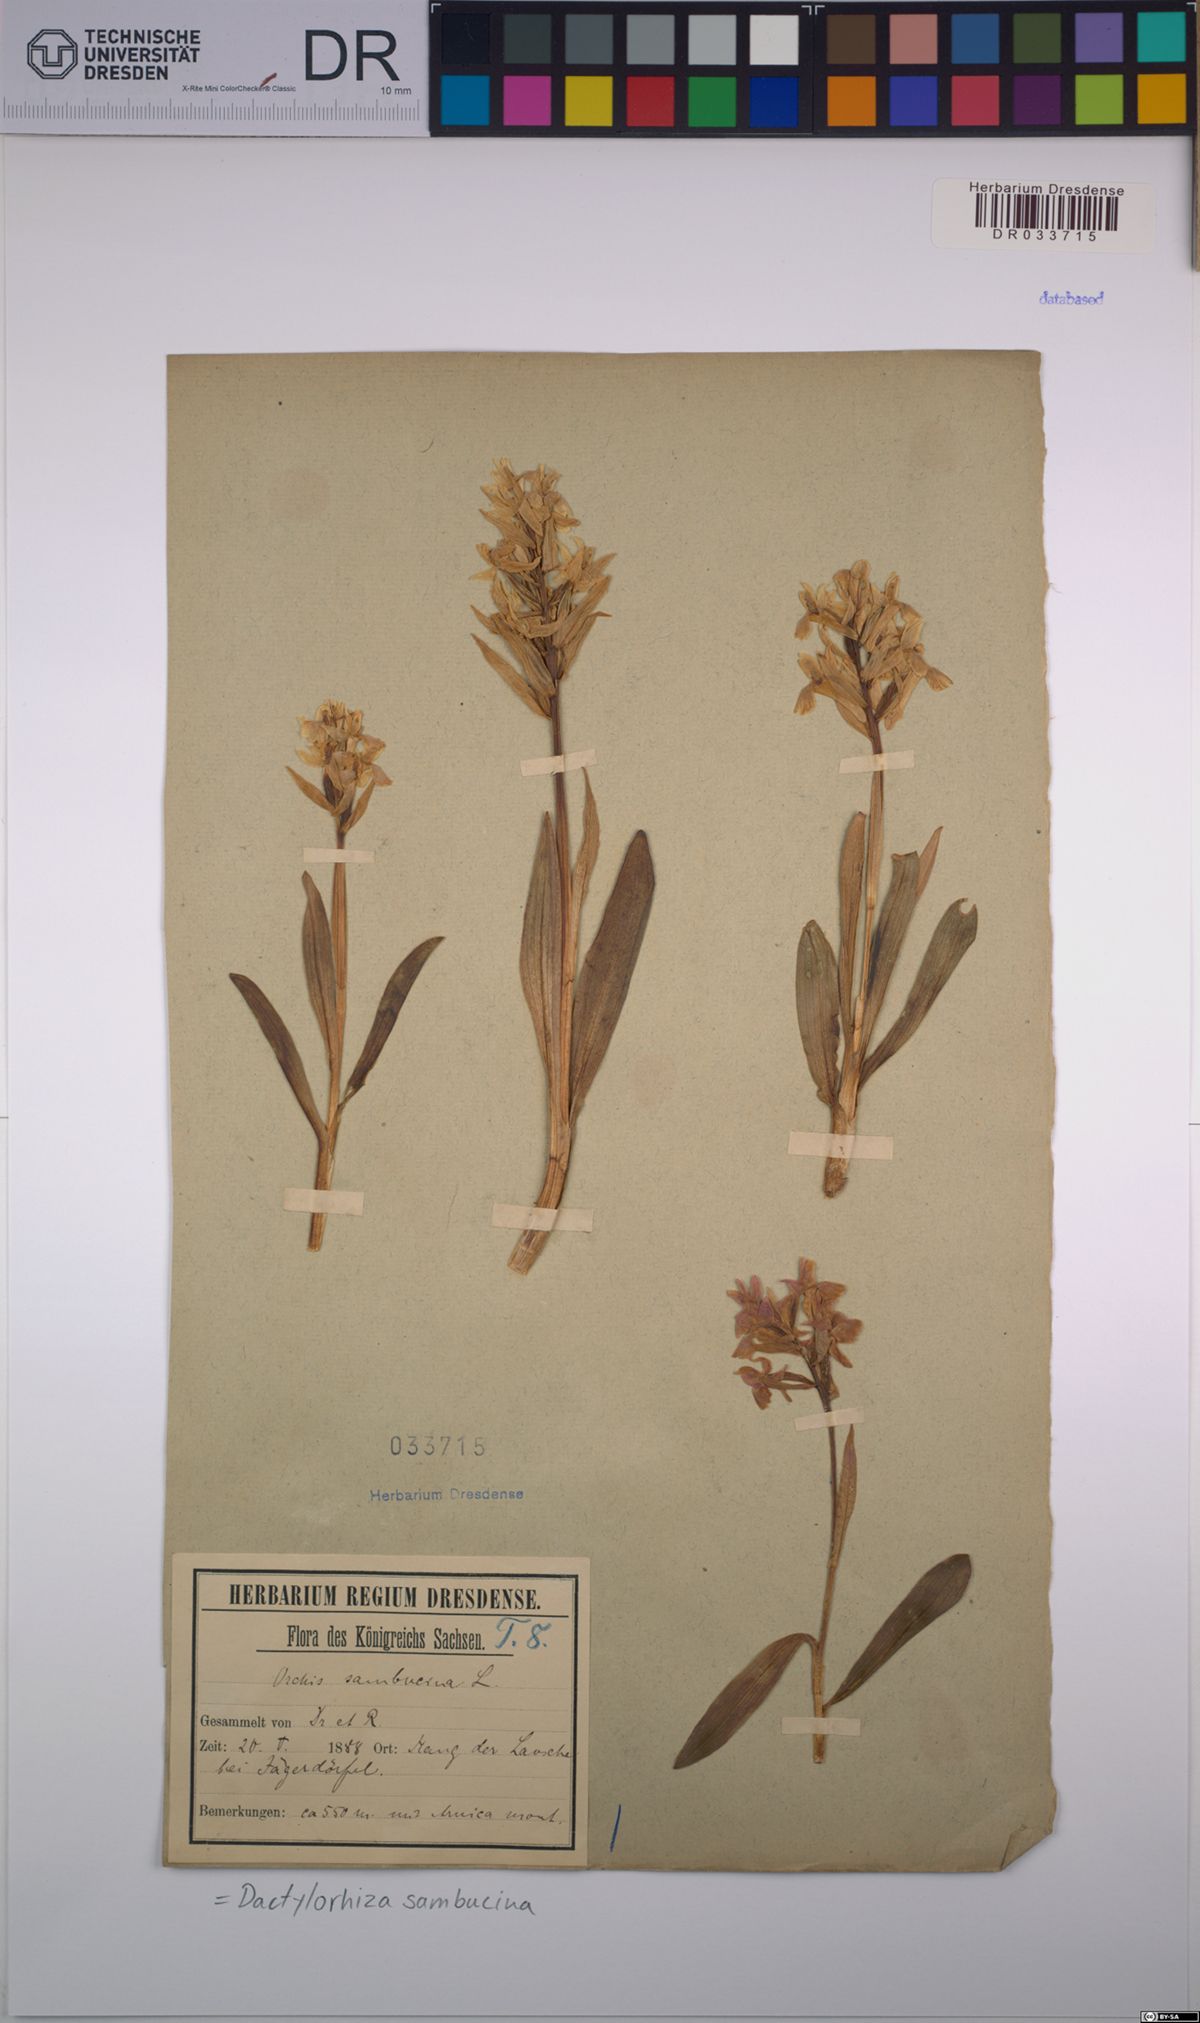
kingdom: Plantae
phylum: Tracheophyta
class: Liliopsida
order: Asparagales
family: Orchidaceae
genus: Dactylorhiza
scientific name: Dactylorhiza sambucina
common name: Elder-flowered orchid
